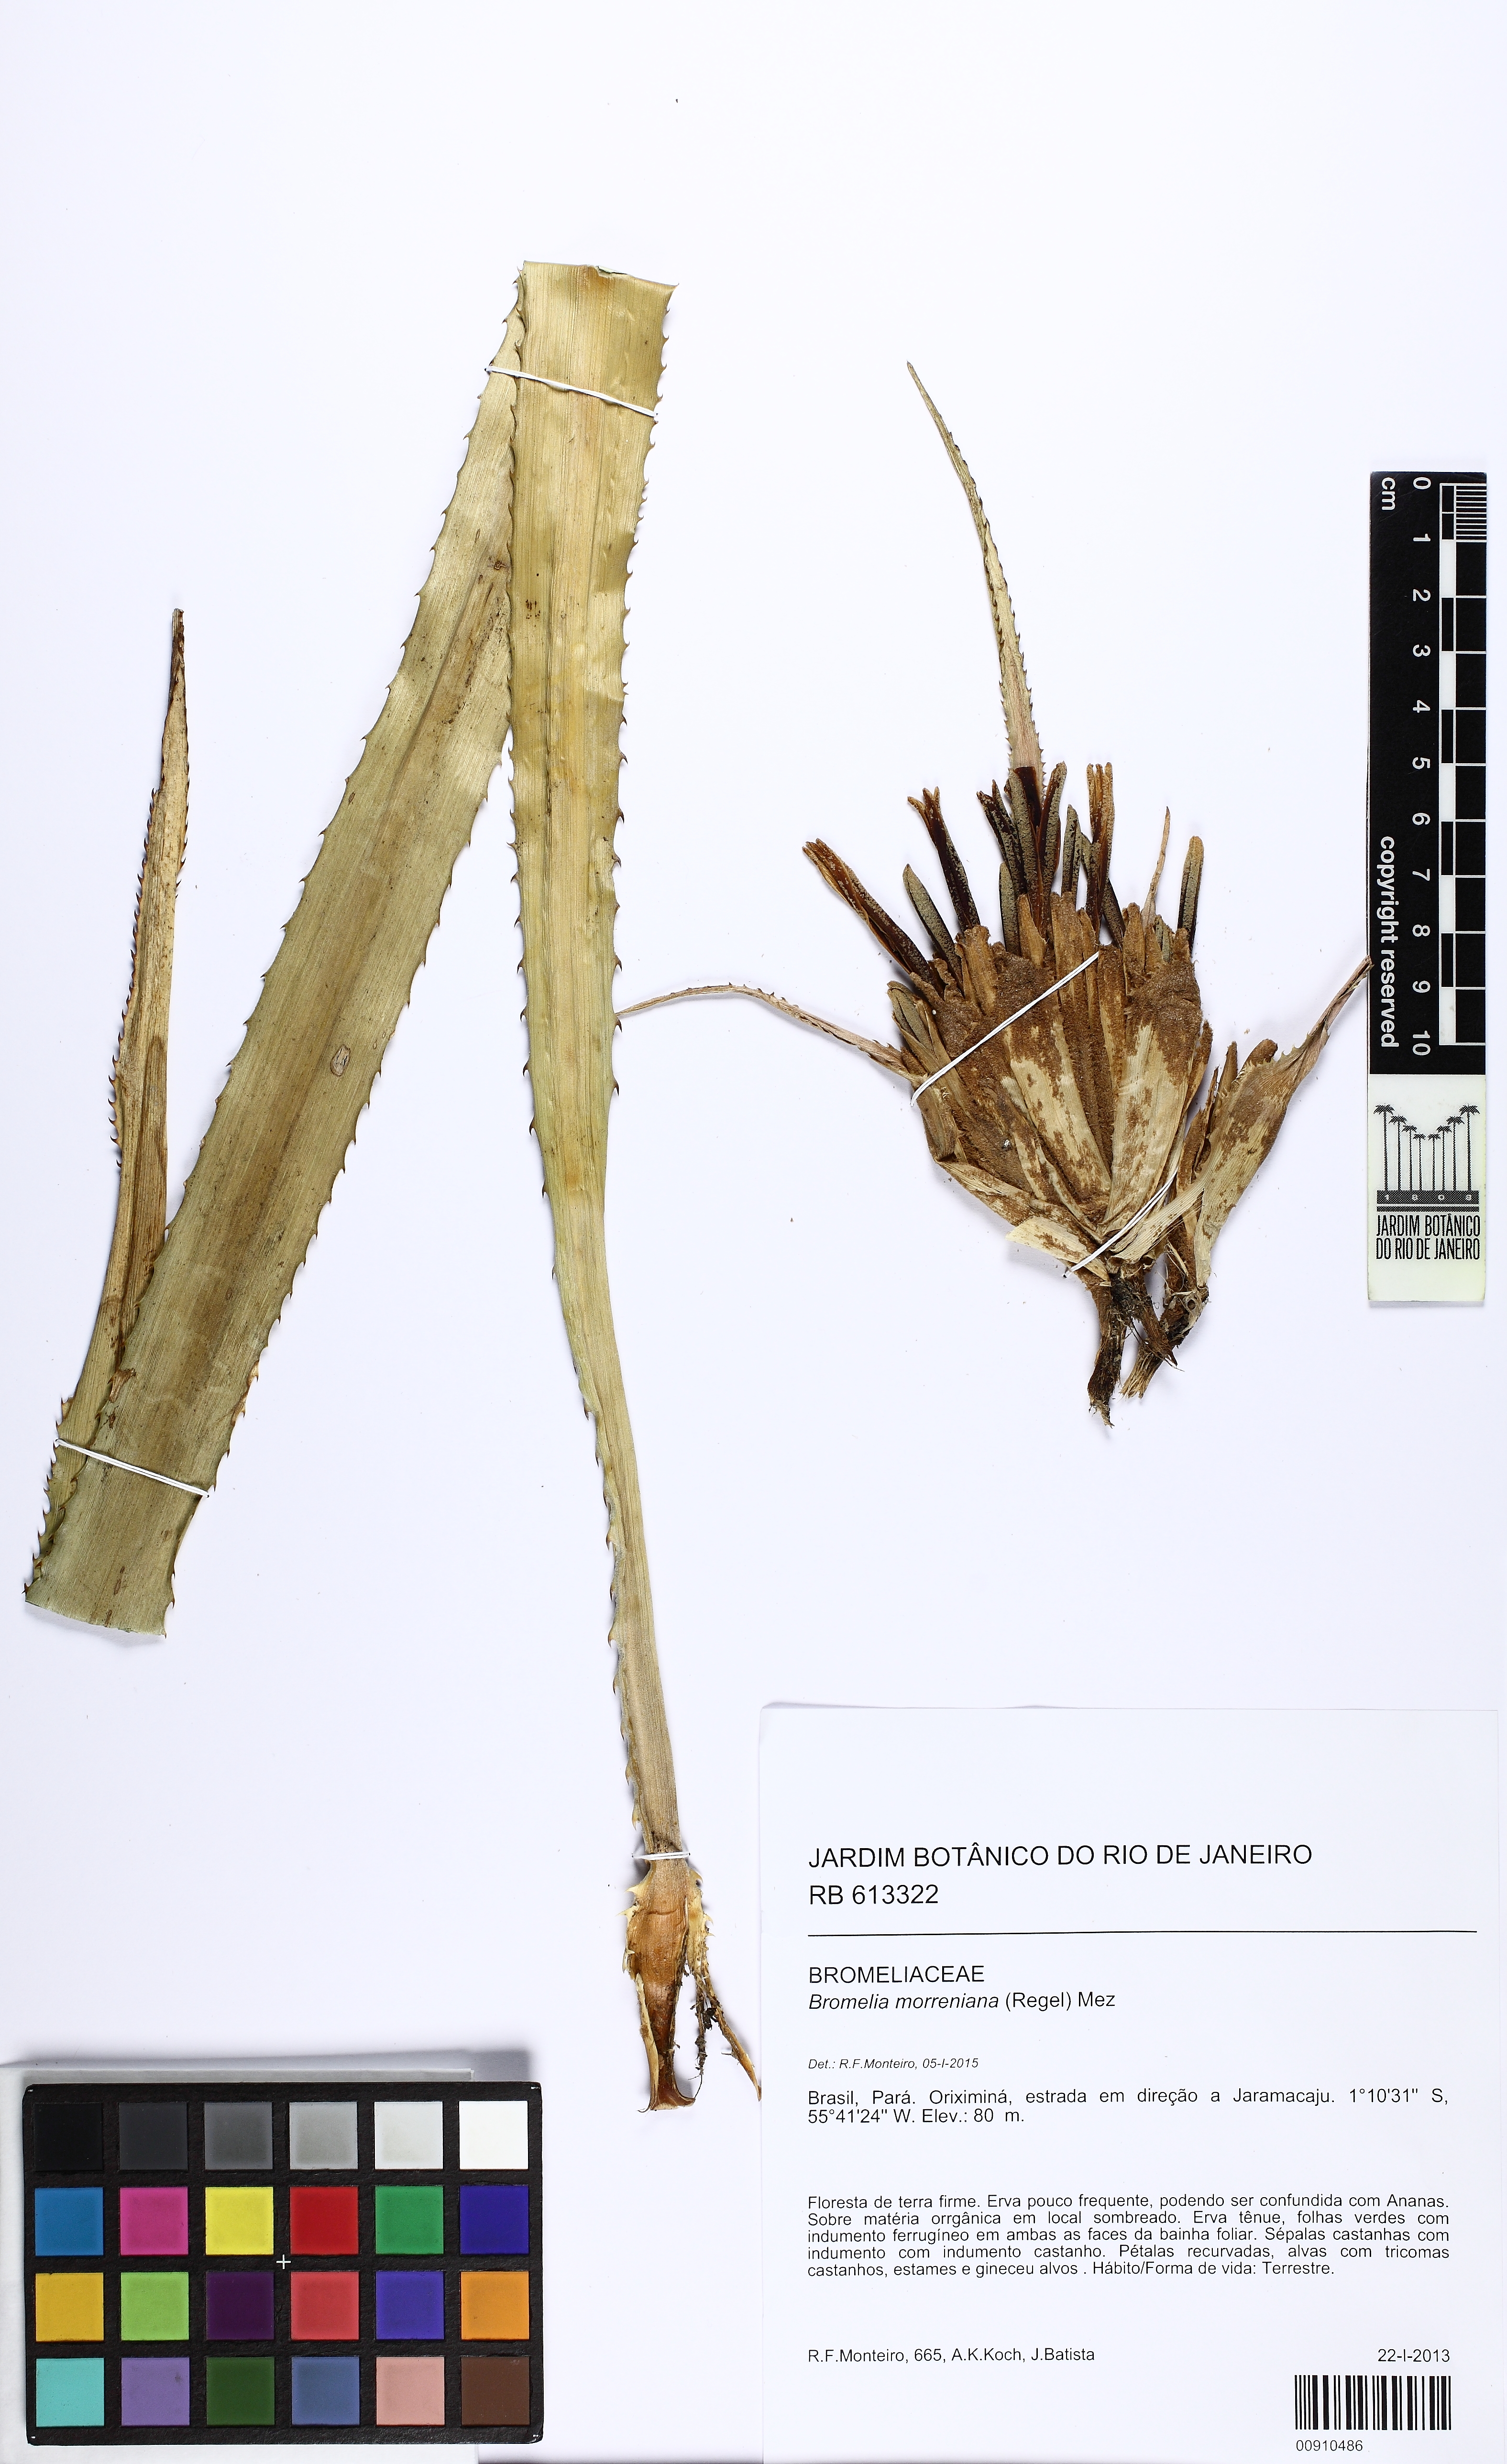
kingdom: Plantae
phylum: Tracheophyta
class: Liliopsida
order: Poales
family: Bromeliaceae
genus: Bromelia
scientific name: Bromelia morreniana
